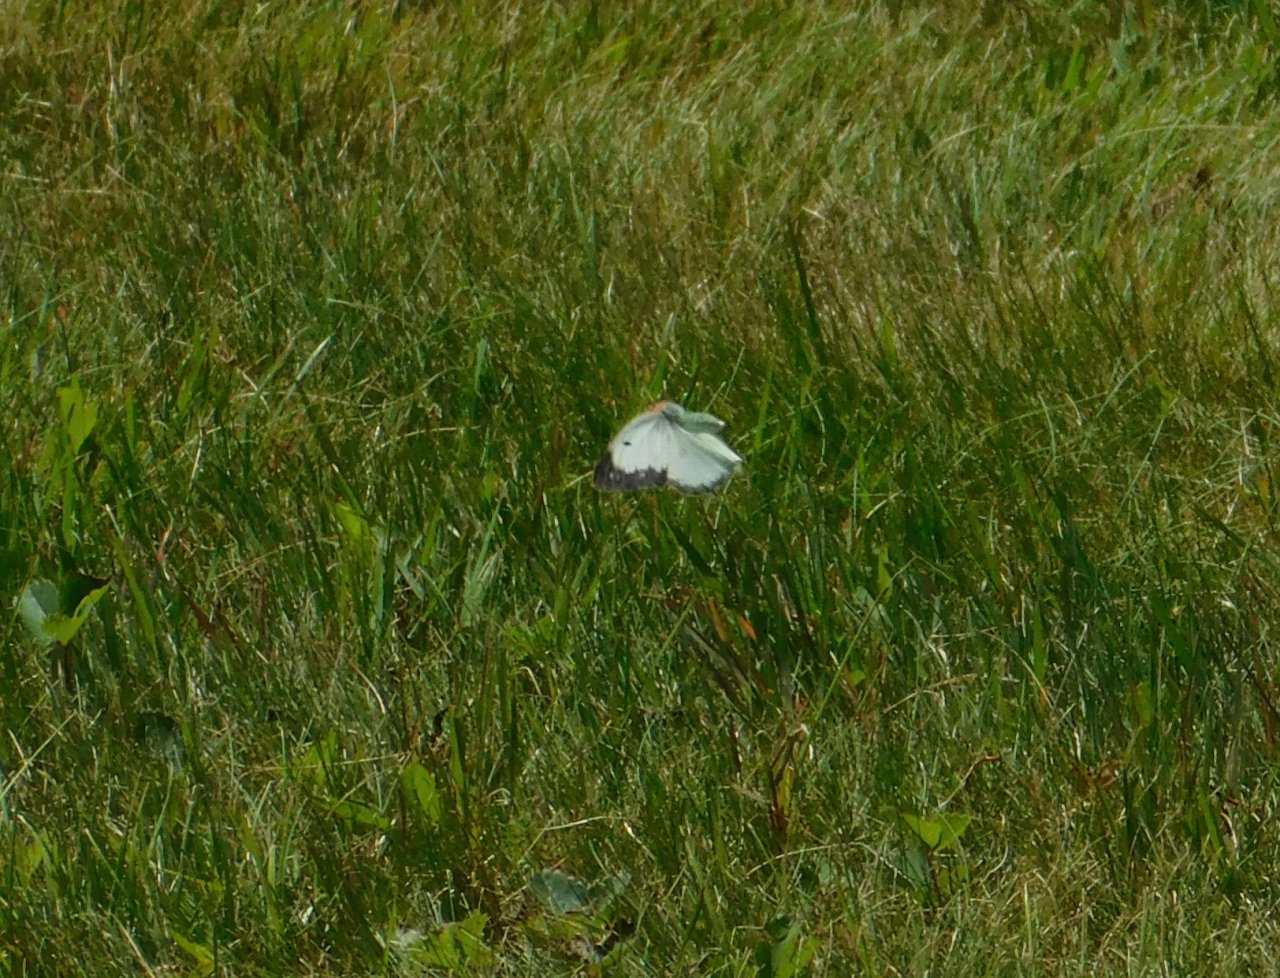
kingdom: Animalia
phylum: Arthropoda
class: Insecta
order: Lepidoptera
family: Pieridae
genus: Colias
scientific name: Colias philodice
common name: Clouded Sulphur
